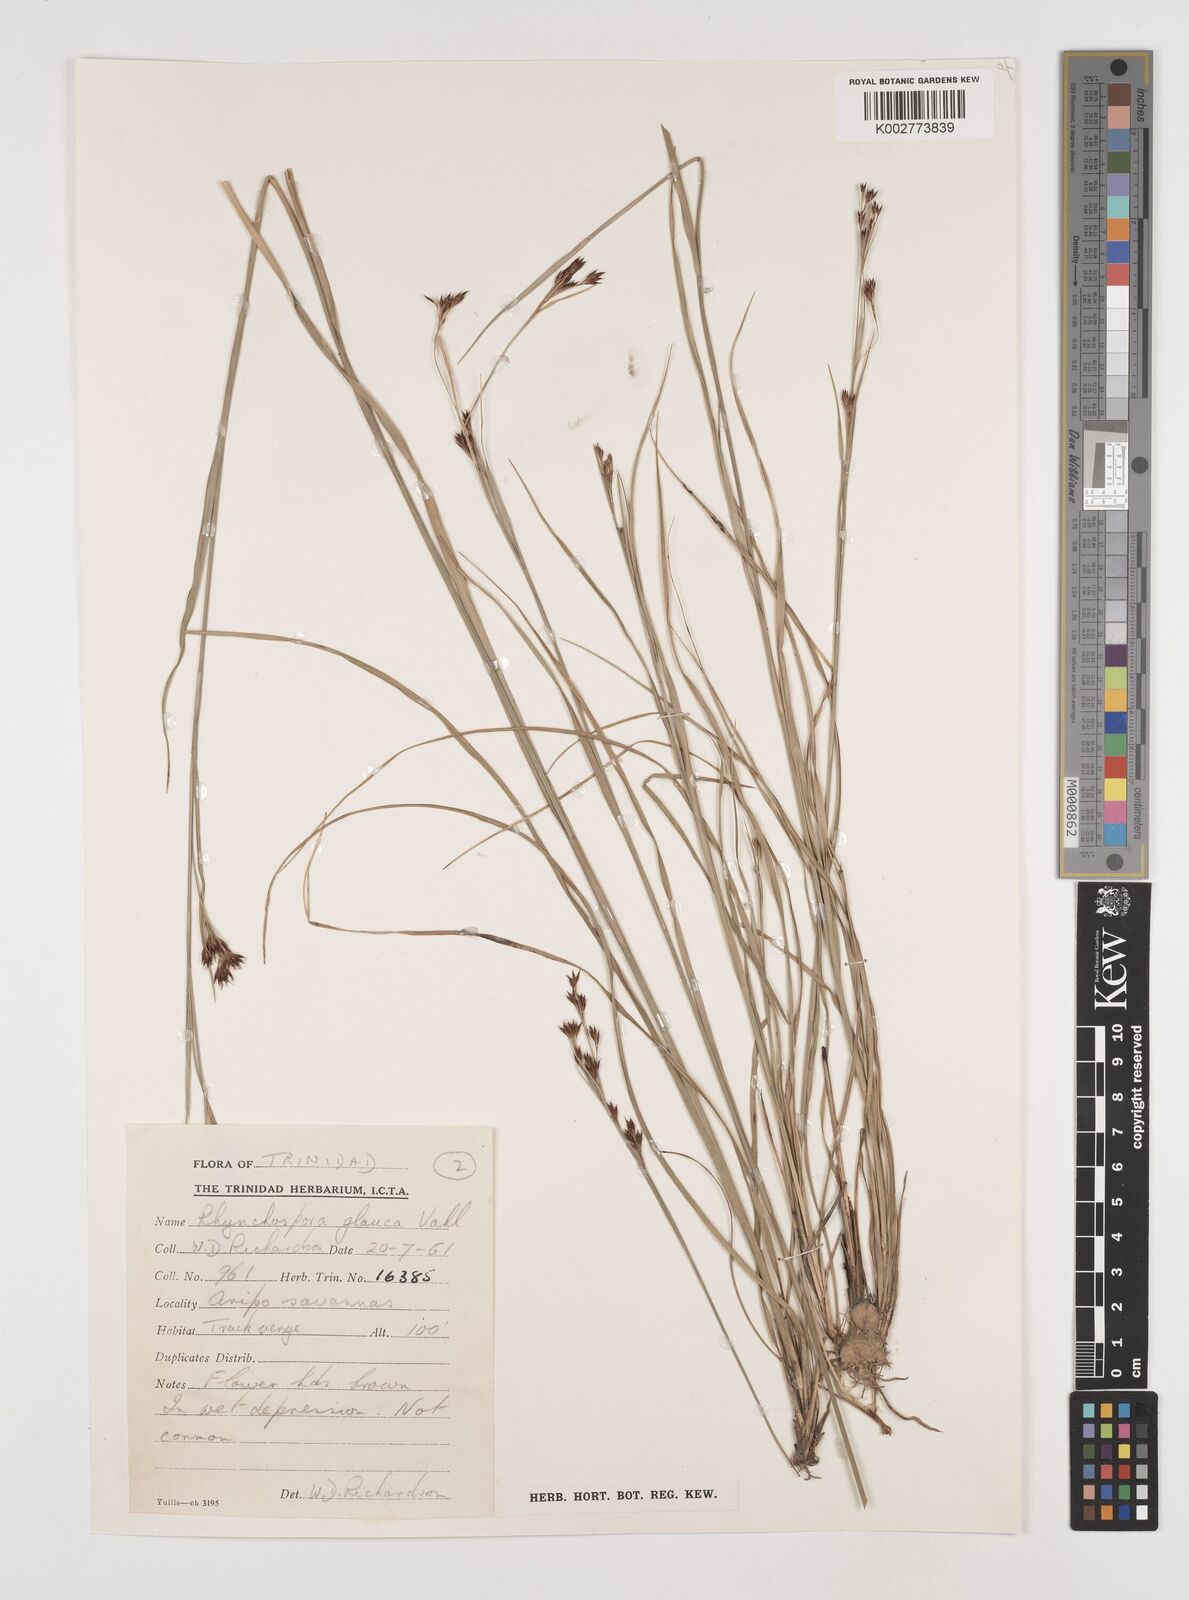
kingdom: Plantae
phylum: Tracheophyta
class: Liliopsida
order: Poales
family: Cyperaceae
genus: Rhynchospora
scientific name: Rhynchospora rugosa
